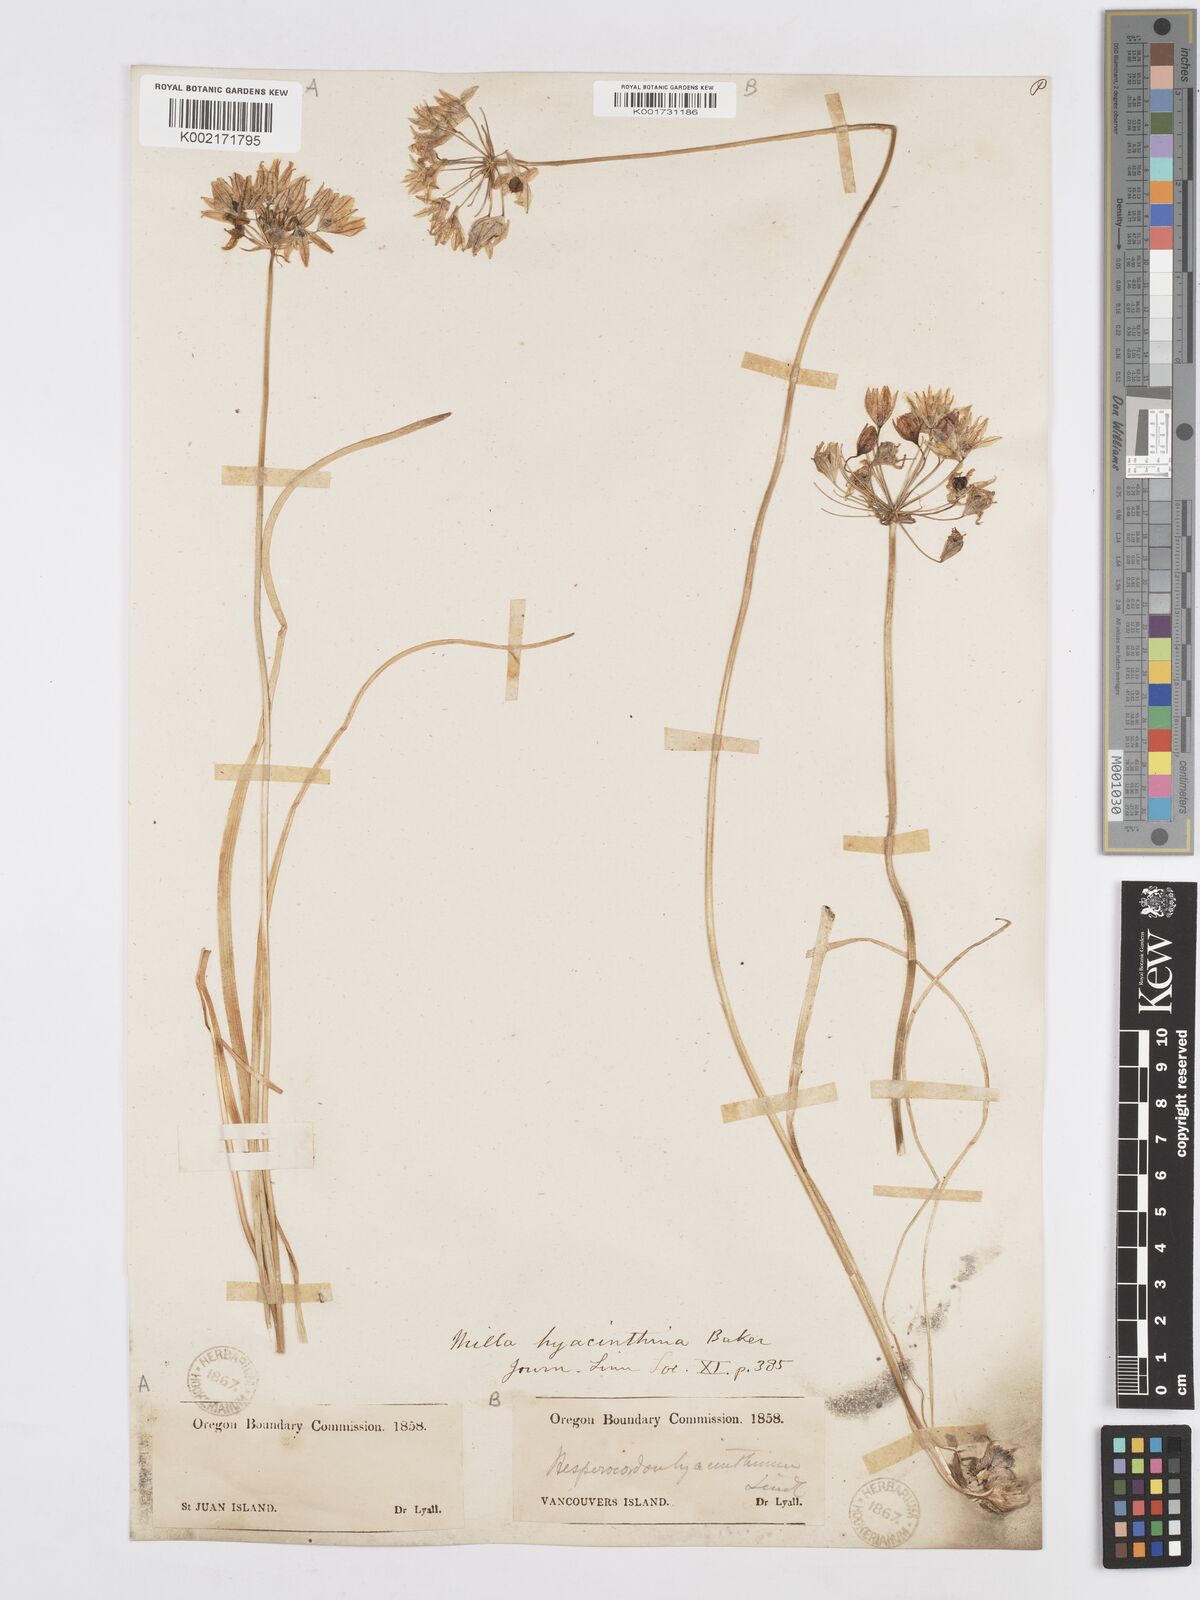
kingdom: Plantae
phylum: Tracheophyta
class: Liliopsida
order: Asparagales
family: Asparagaceae
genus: Triteleia
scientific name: Triteleia hyacinthina
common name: White brodiaea
